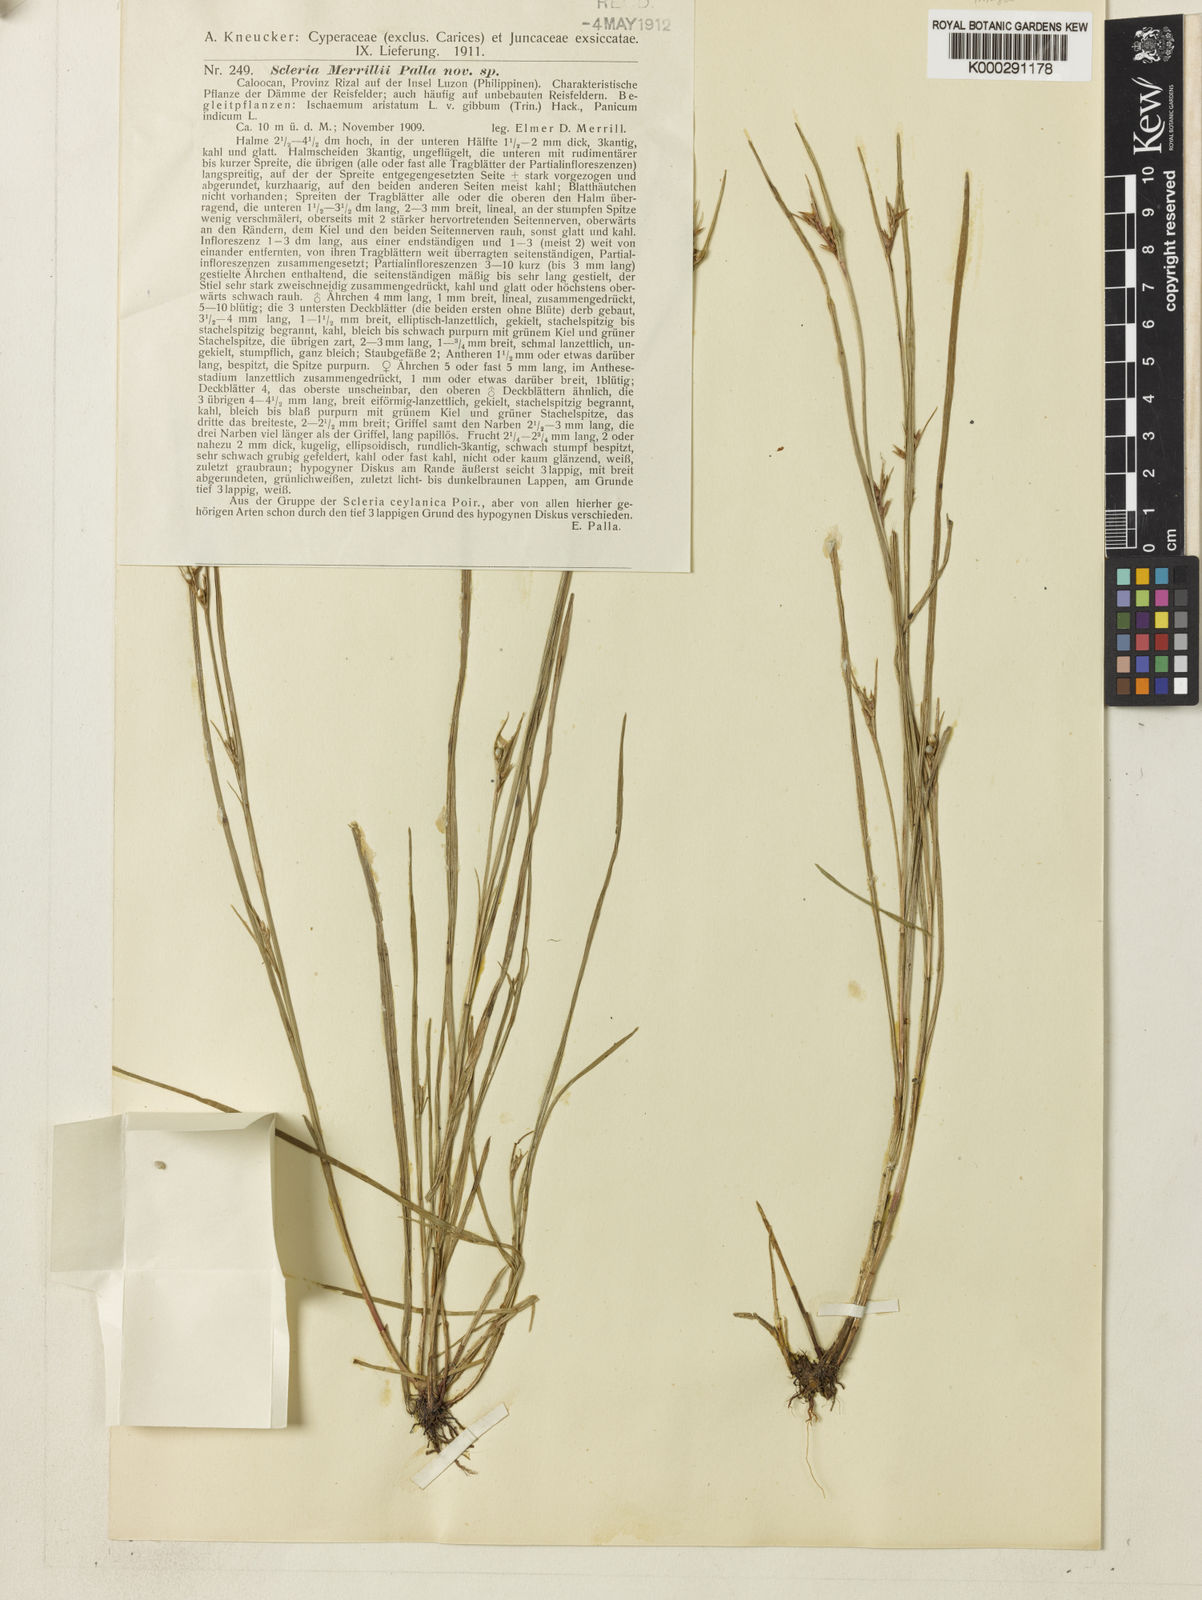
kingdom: Plantae
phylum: Tracheophyta
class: Liliopsida
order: Poales
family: Cyperaceae
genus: Scleria
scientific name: Scleria novae-hollandiae
